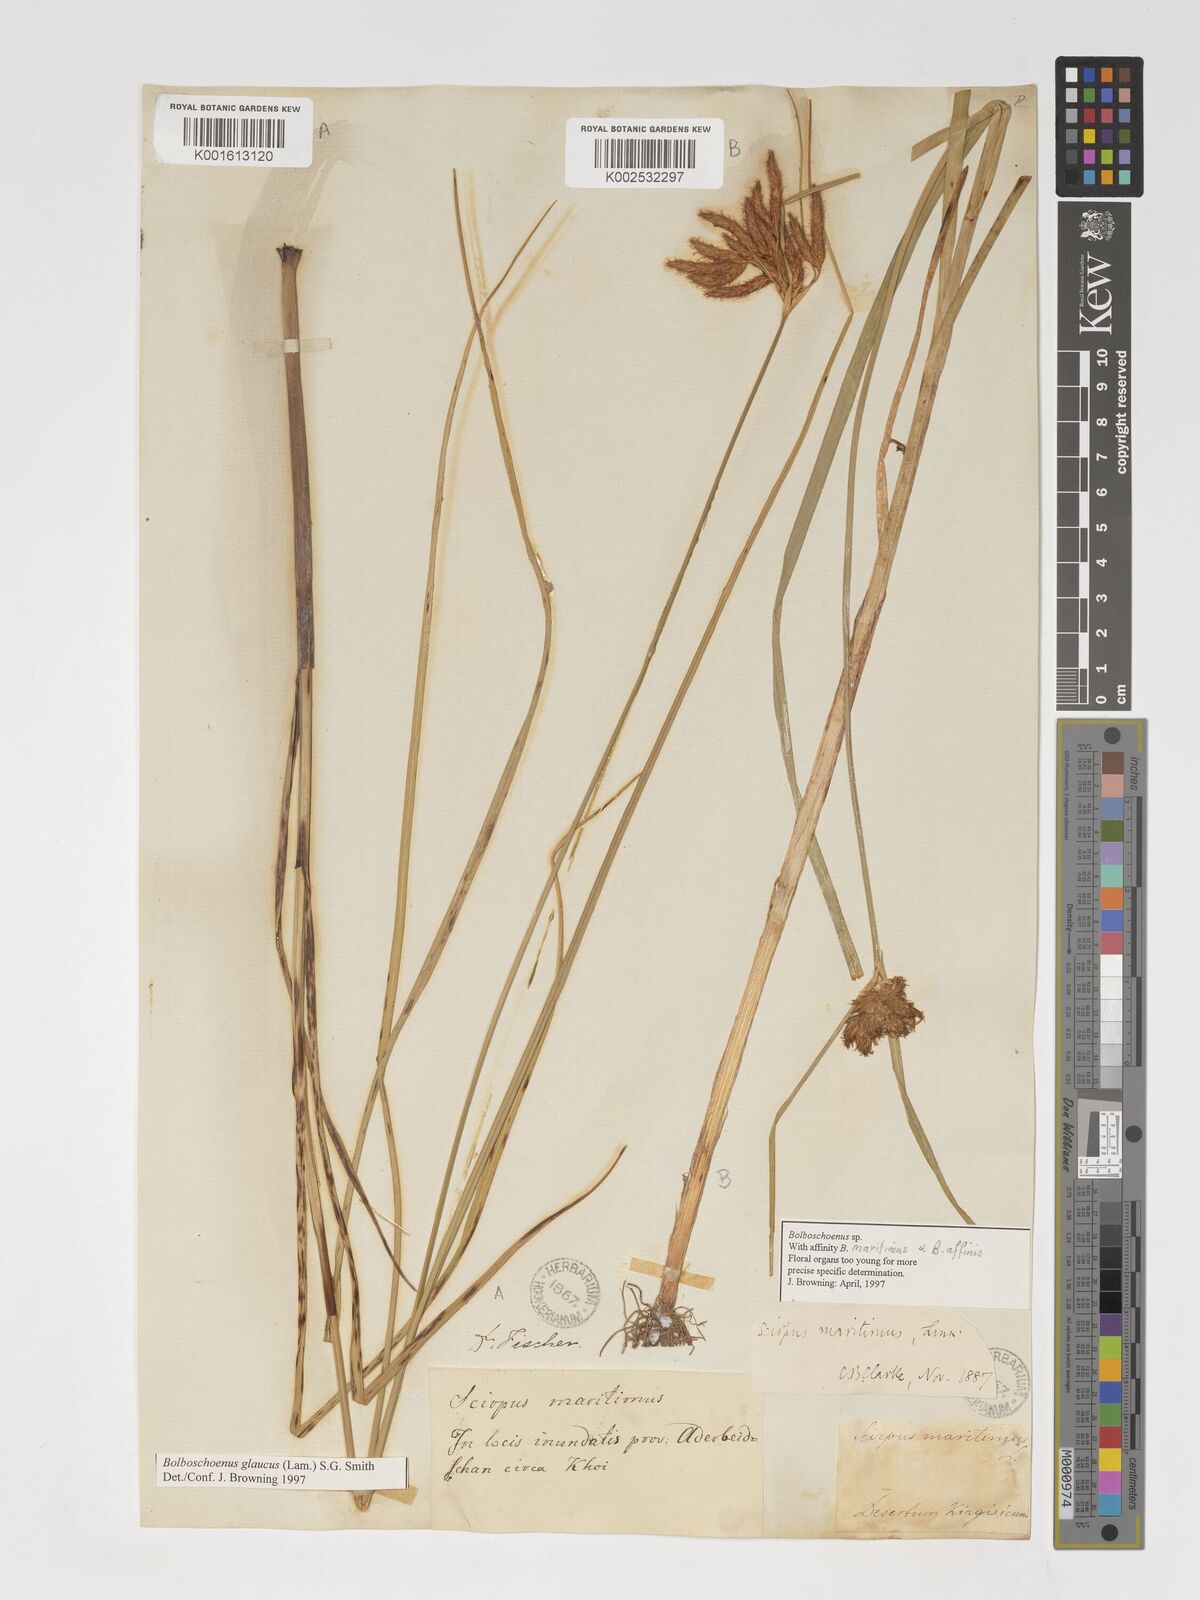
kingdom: Plantae
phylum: Tracheophyta
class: Liliopsida
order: Poales
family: Cyperaceae
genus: Bolboschoenus
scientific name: Bolboschoenus maritimus
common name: Sea club-rush
